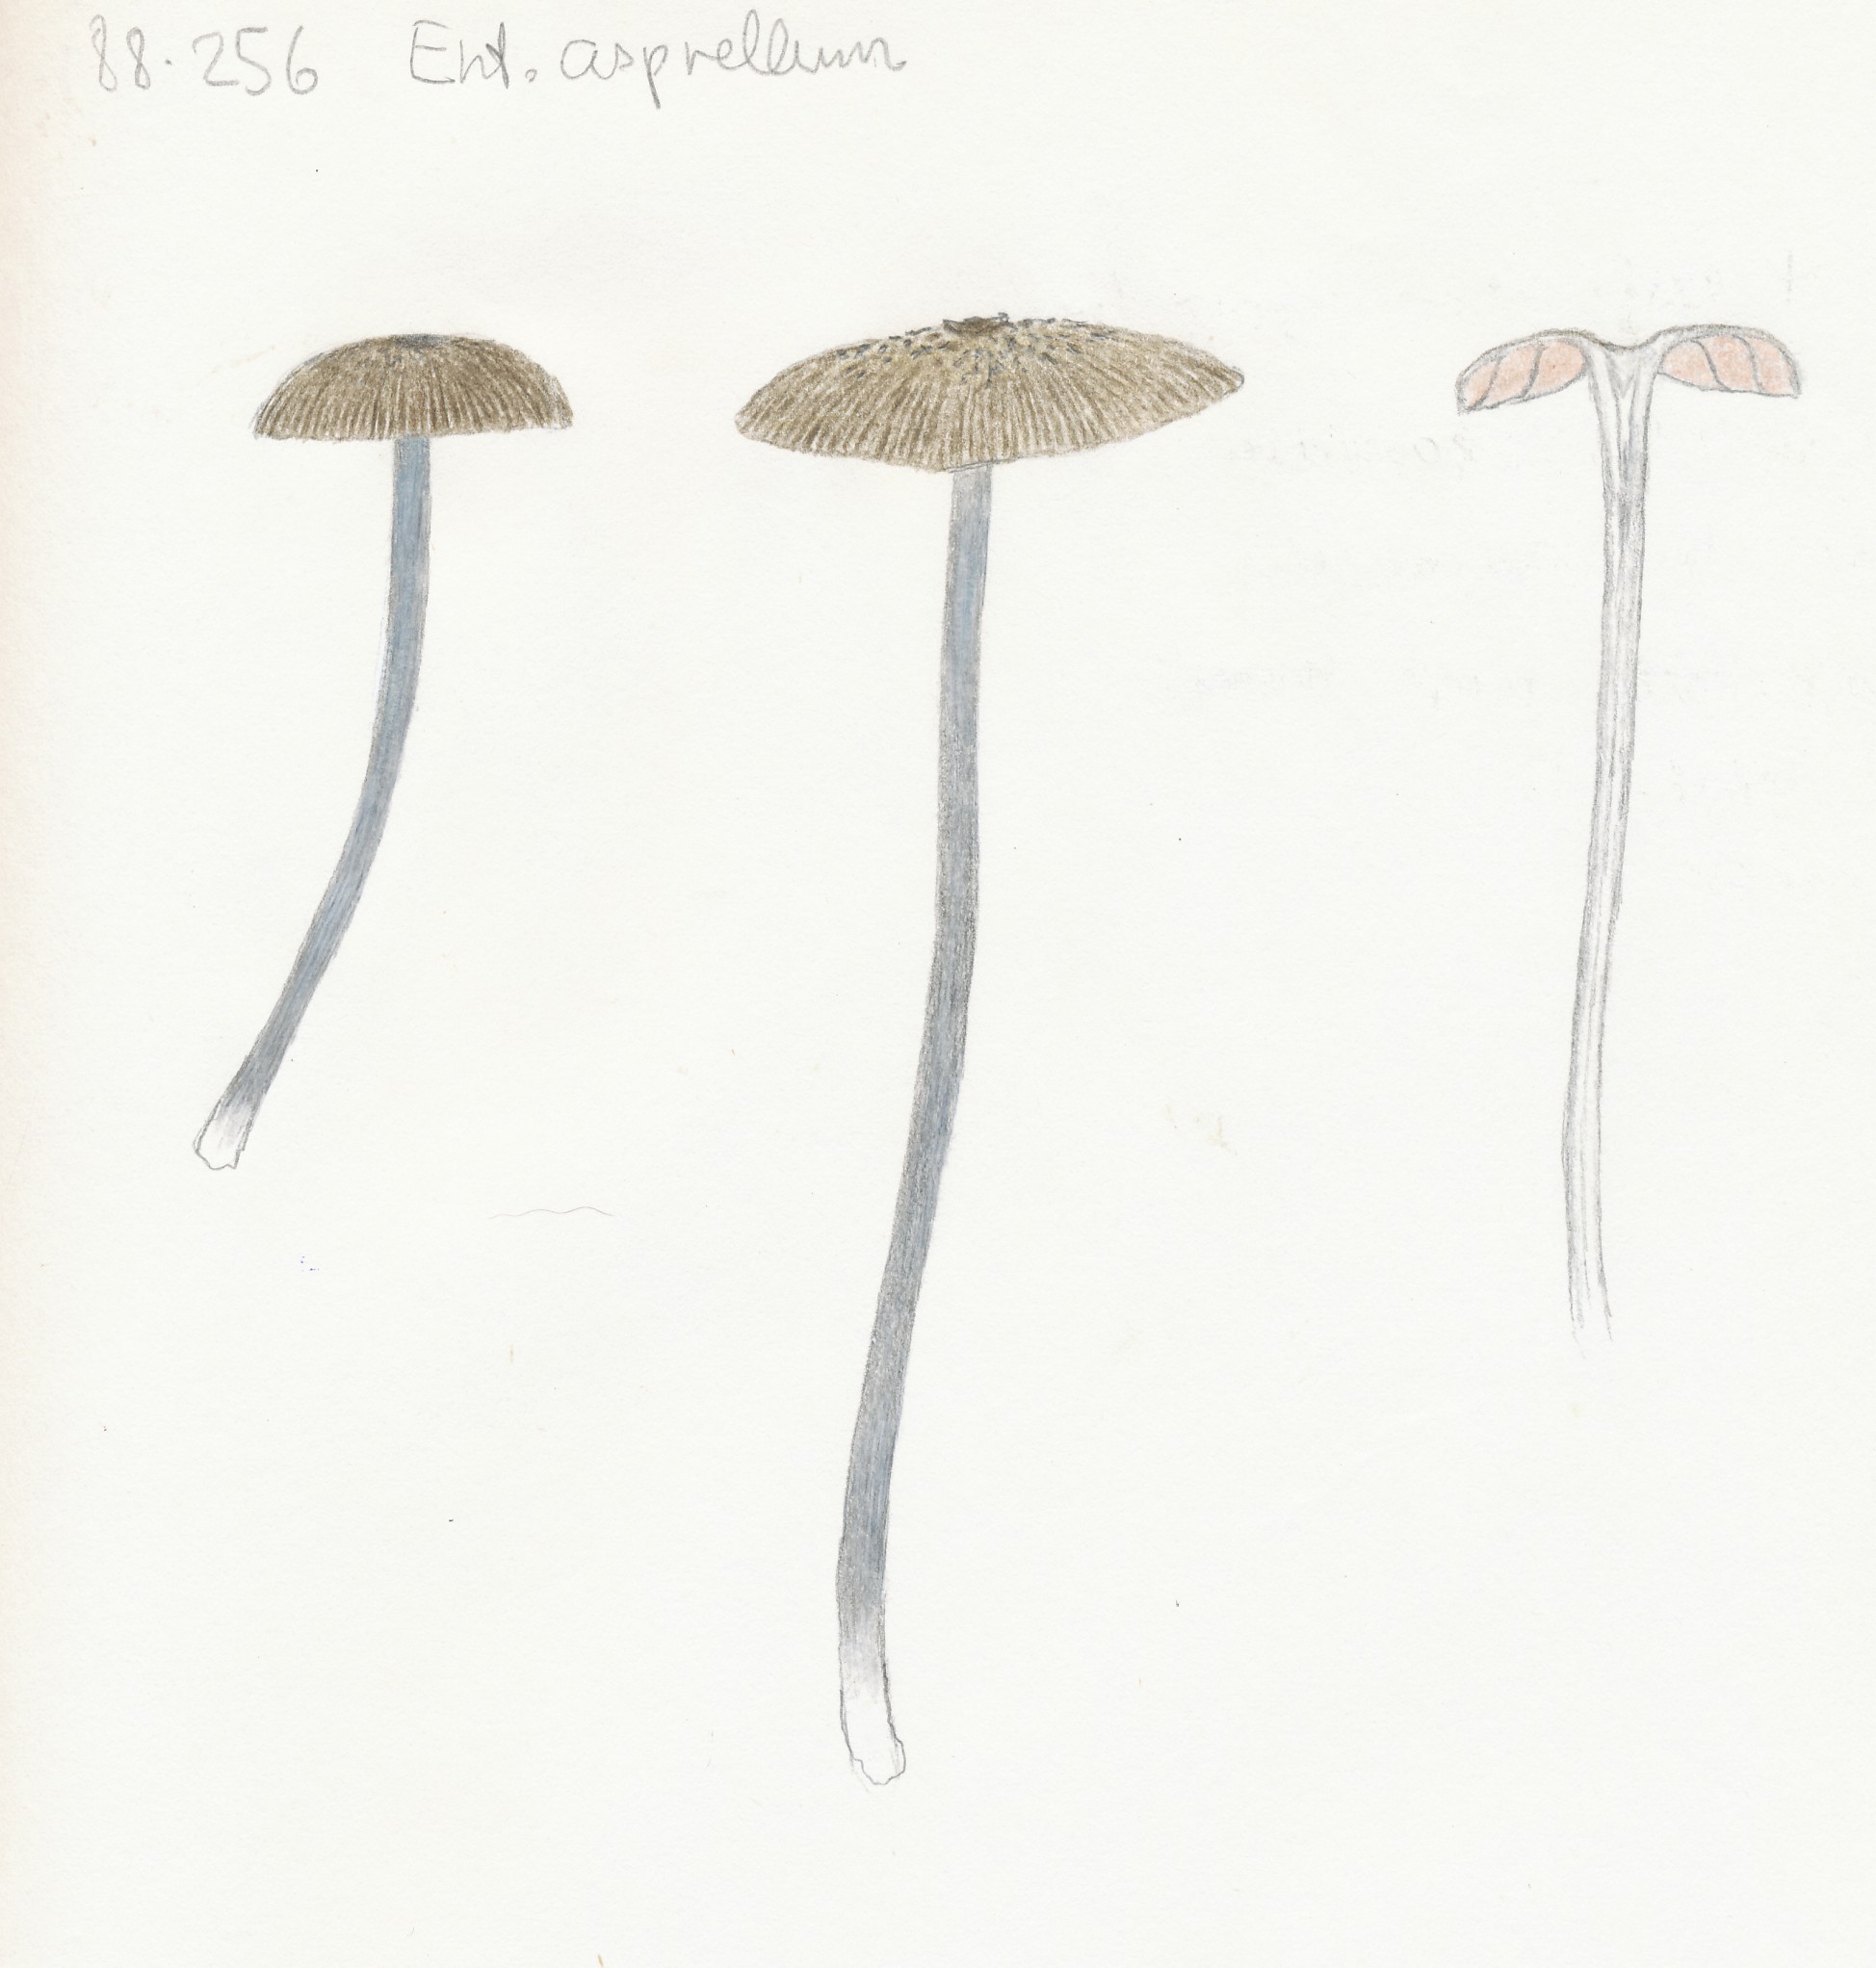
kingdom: Fungi
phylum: Basidiomycota
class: Agaricomycetes
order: Agaricales
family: Entolomataceae
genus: Entoloma
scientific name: Entoloma asprellum
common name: ru rødblad
